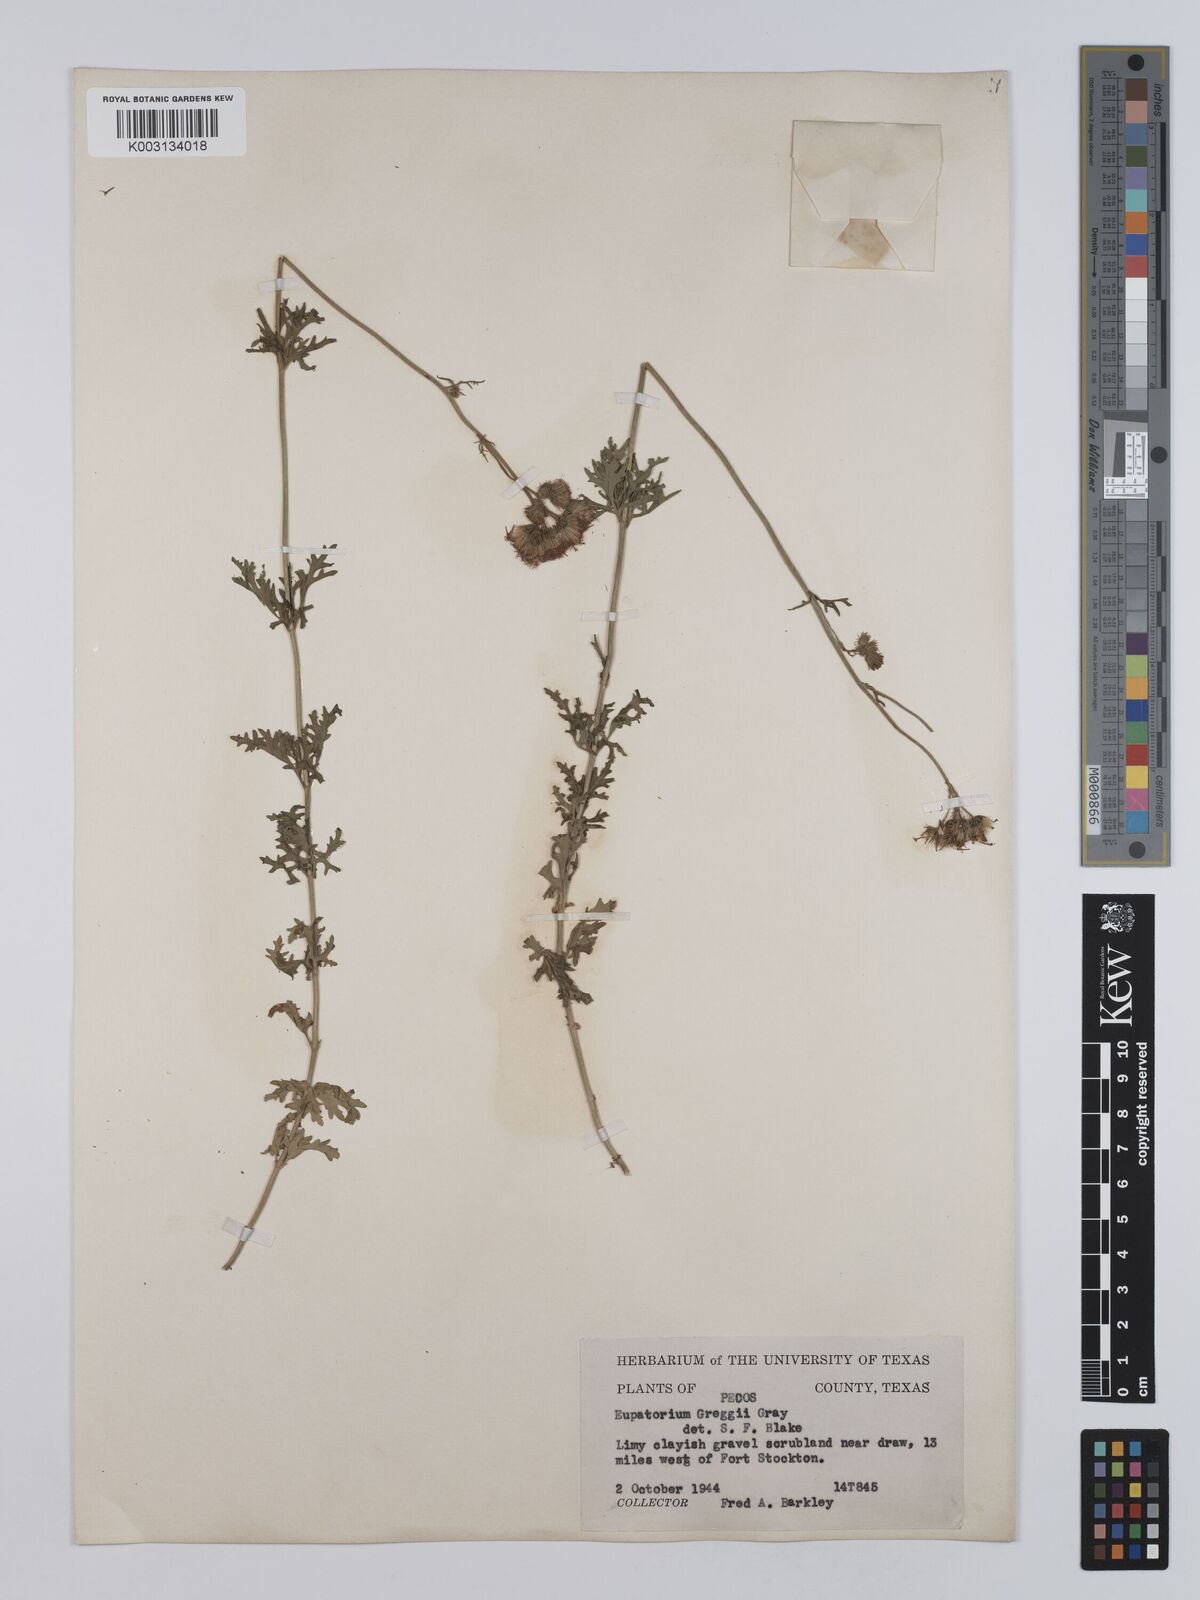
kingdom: Plantae
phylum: Tracheophyta
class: Magnoliopsida
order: Asterales
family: Asteraceae
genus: Conoclinium
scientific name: Conoclinium dissectum
